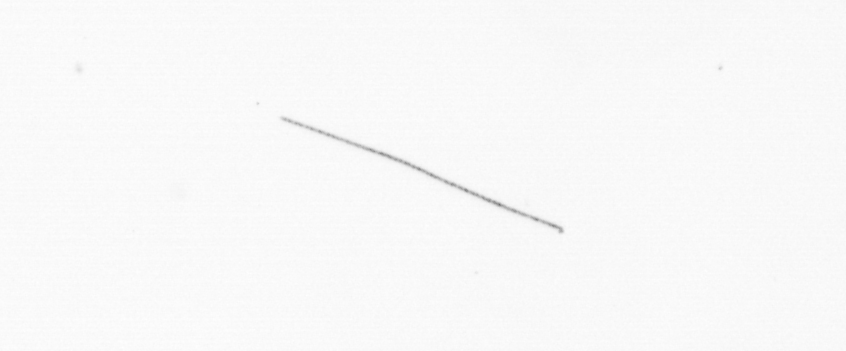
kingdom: Chromista
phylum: Ochrophyta
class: Bacillariophyceae
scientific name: Bacillariophyceae
